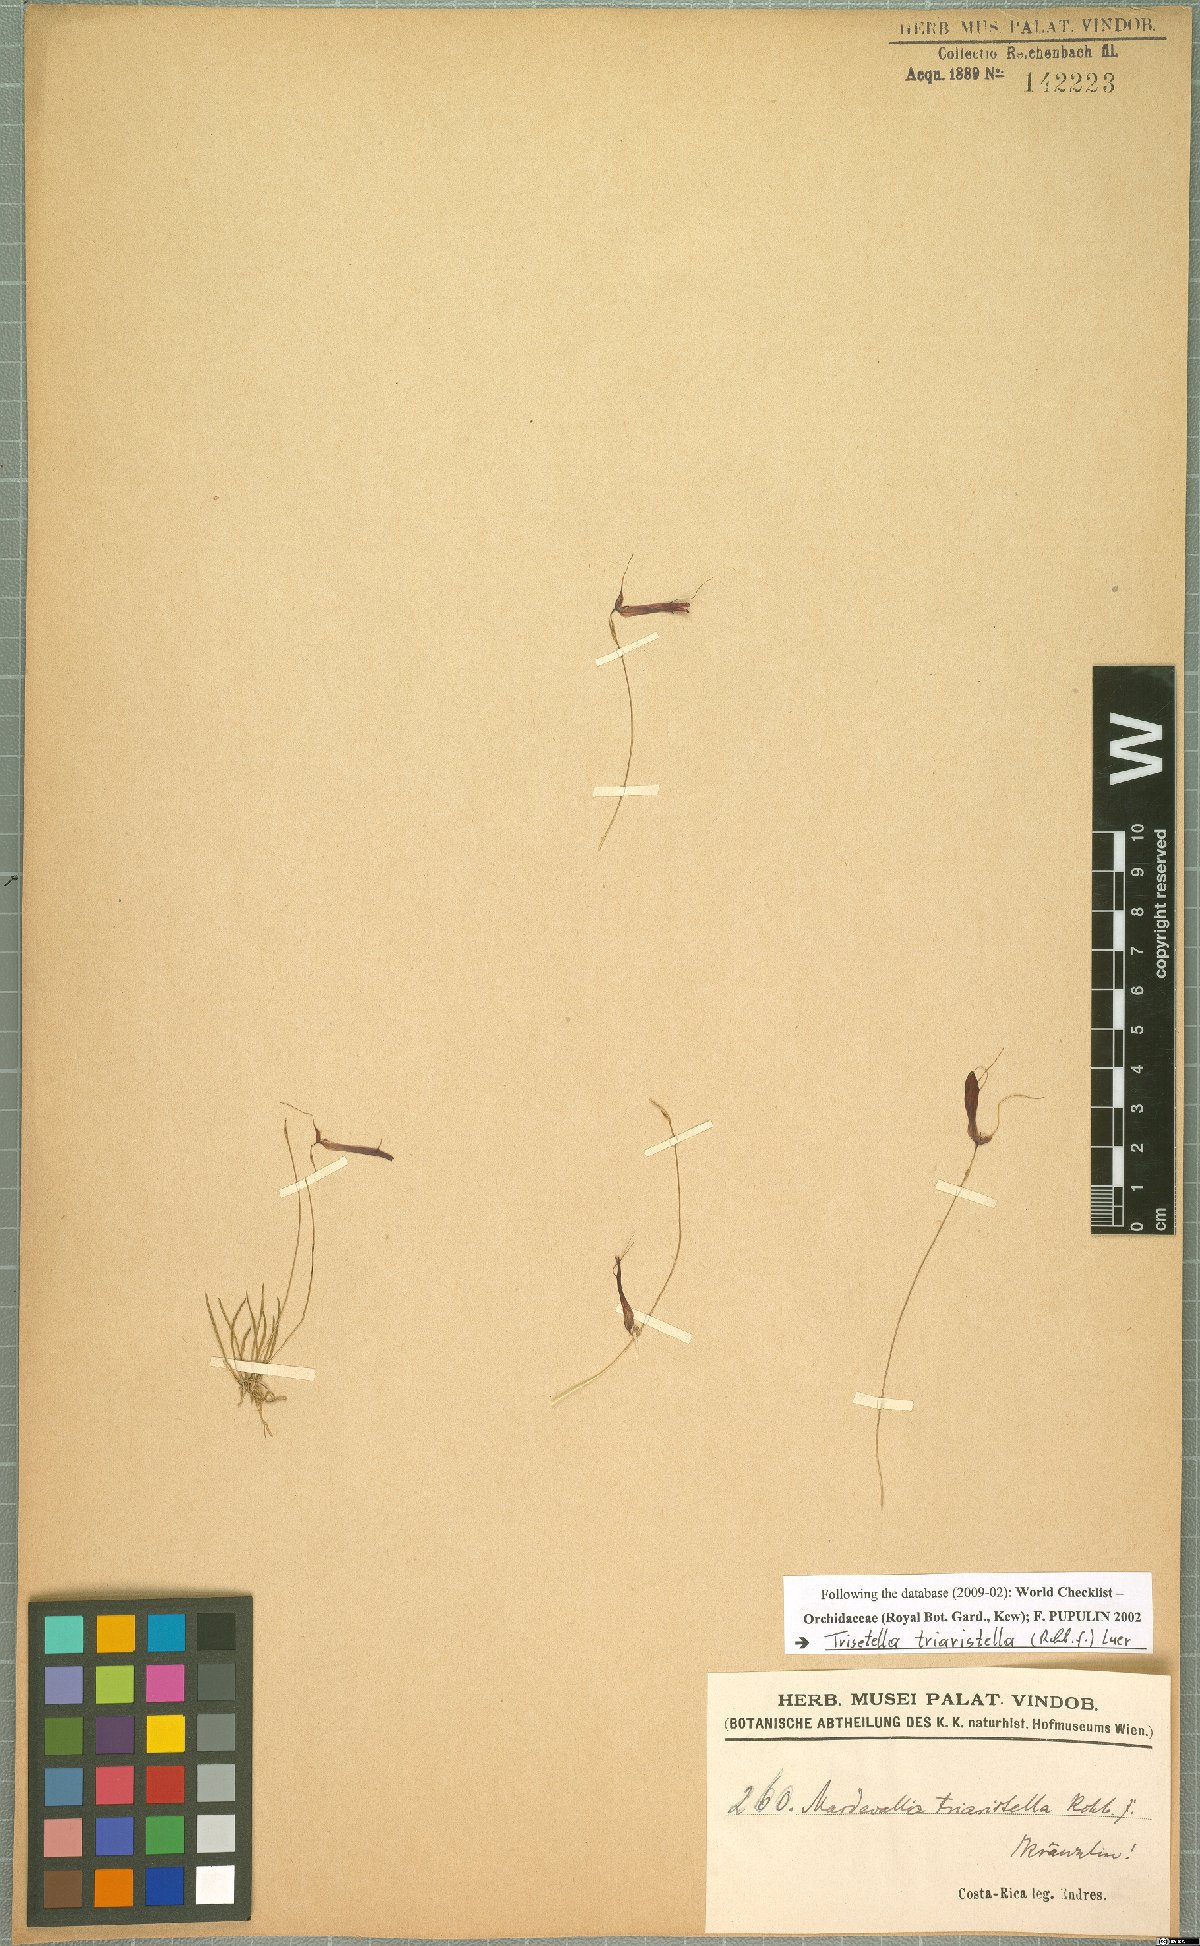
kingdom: Plantae
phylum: Tracheophyta
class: Liliopsida
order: Asparagales
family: Orchidaceae
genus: Trisetella
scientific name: Trisetella triaristella
